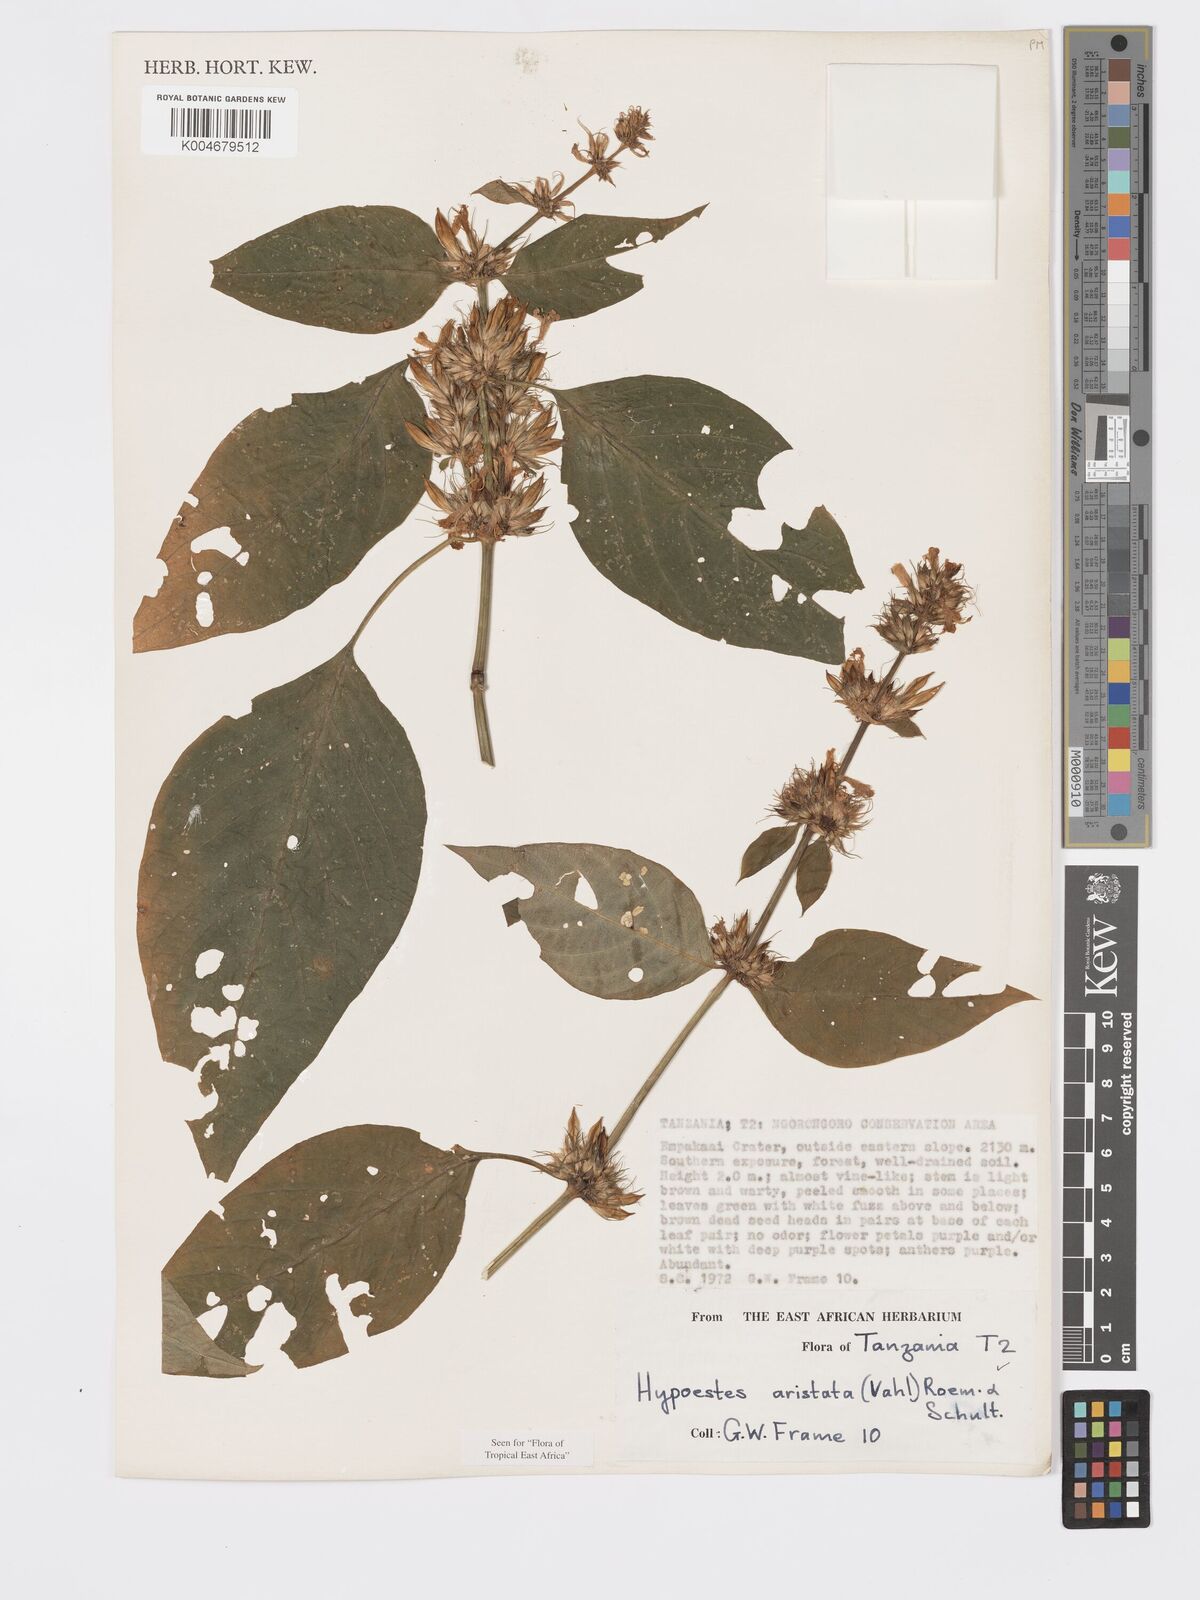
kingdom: Plantae
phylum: Tracheophyta
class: Magnoliopsida
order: Lamiales
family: Acanthaceae
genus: Hypoestes
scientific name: Hypoestes aristata
